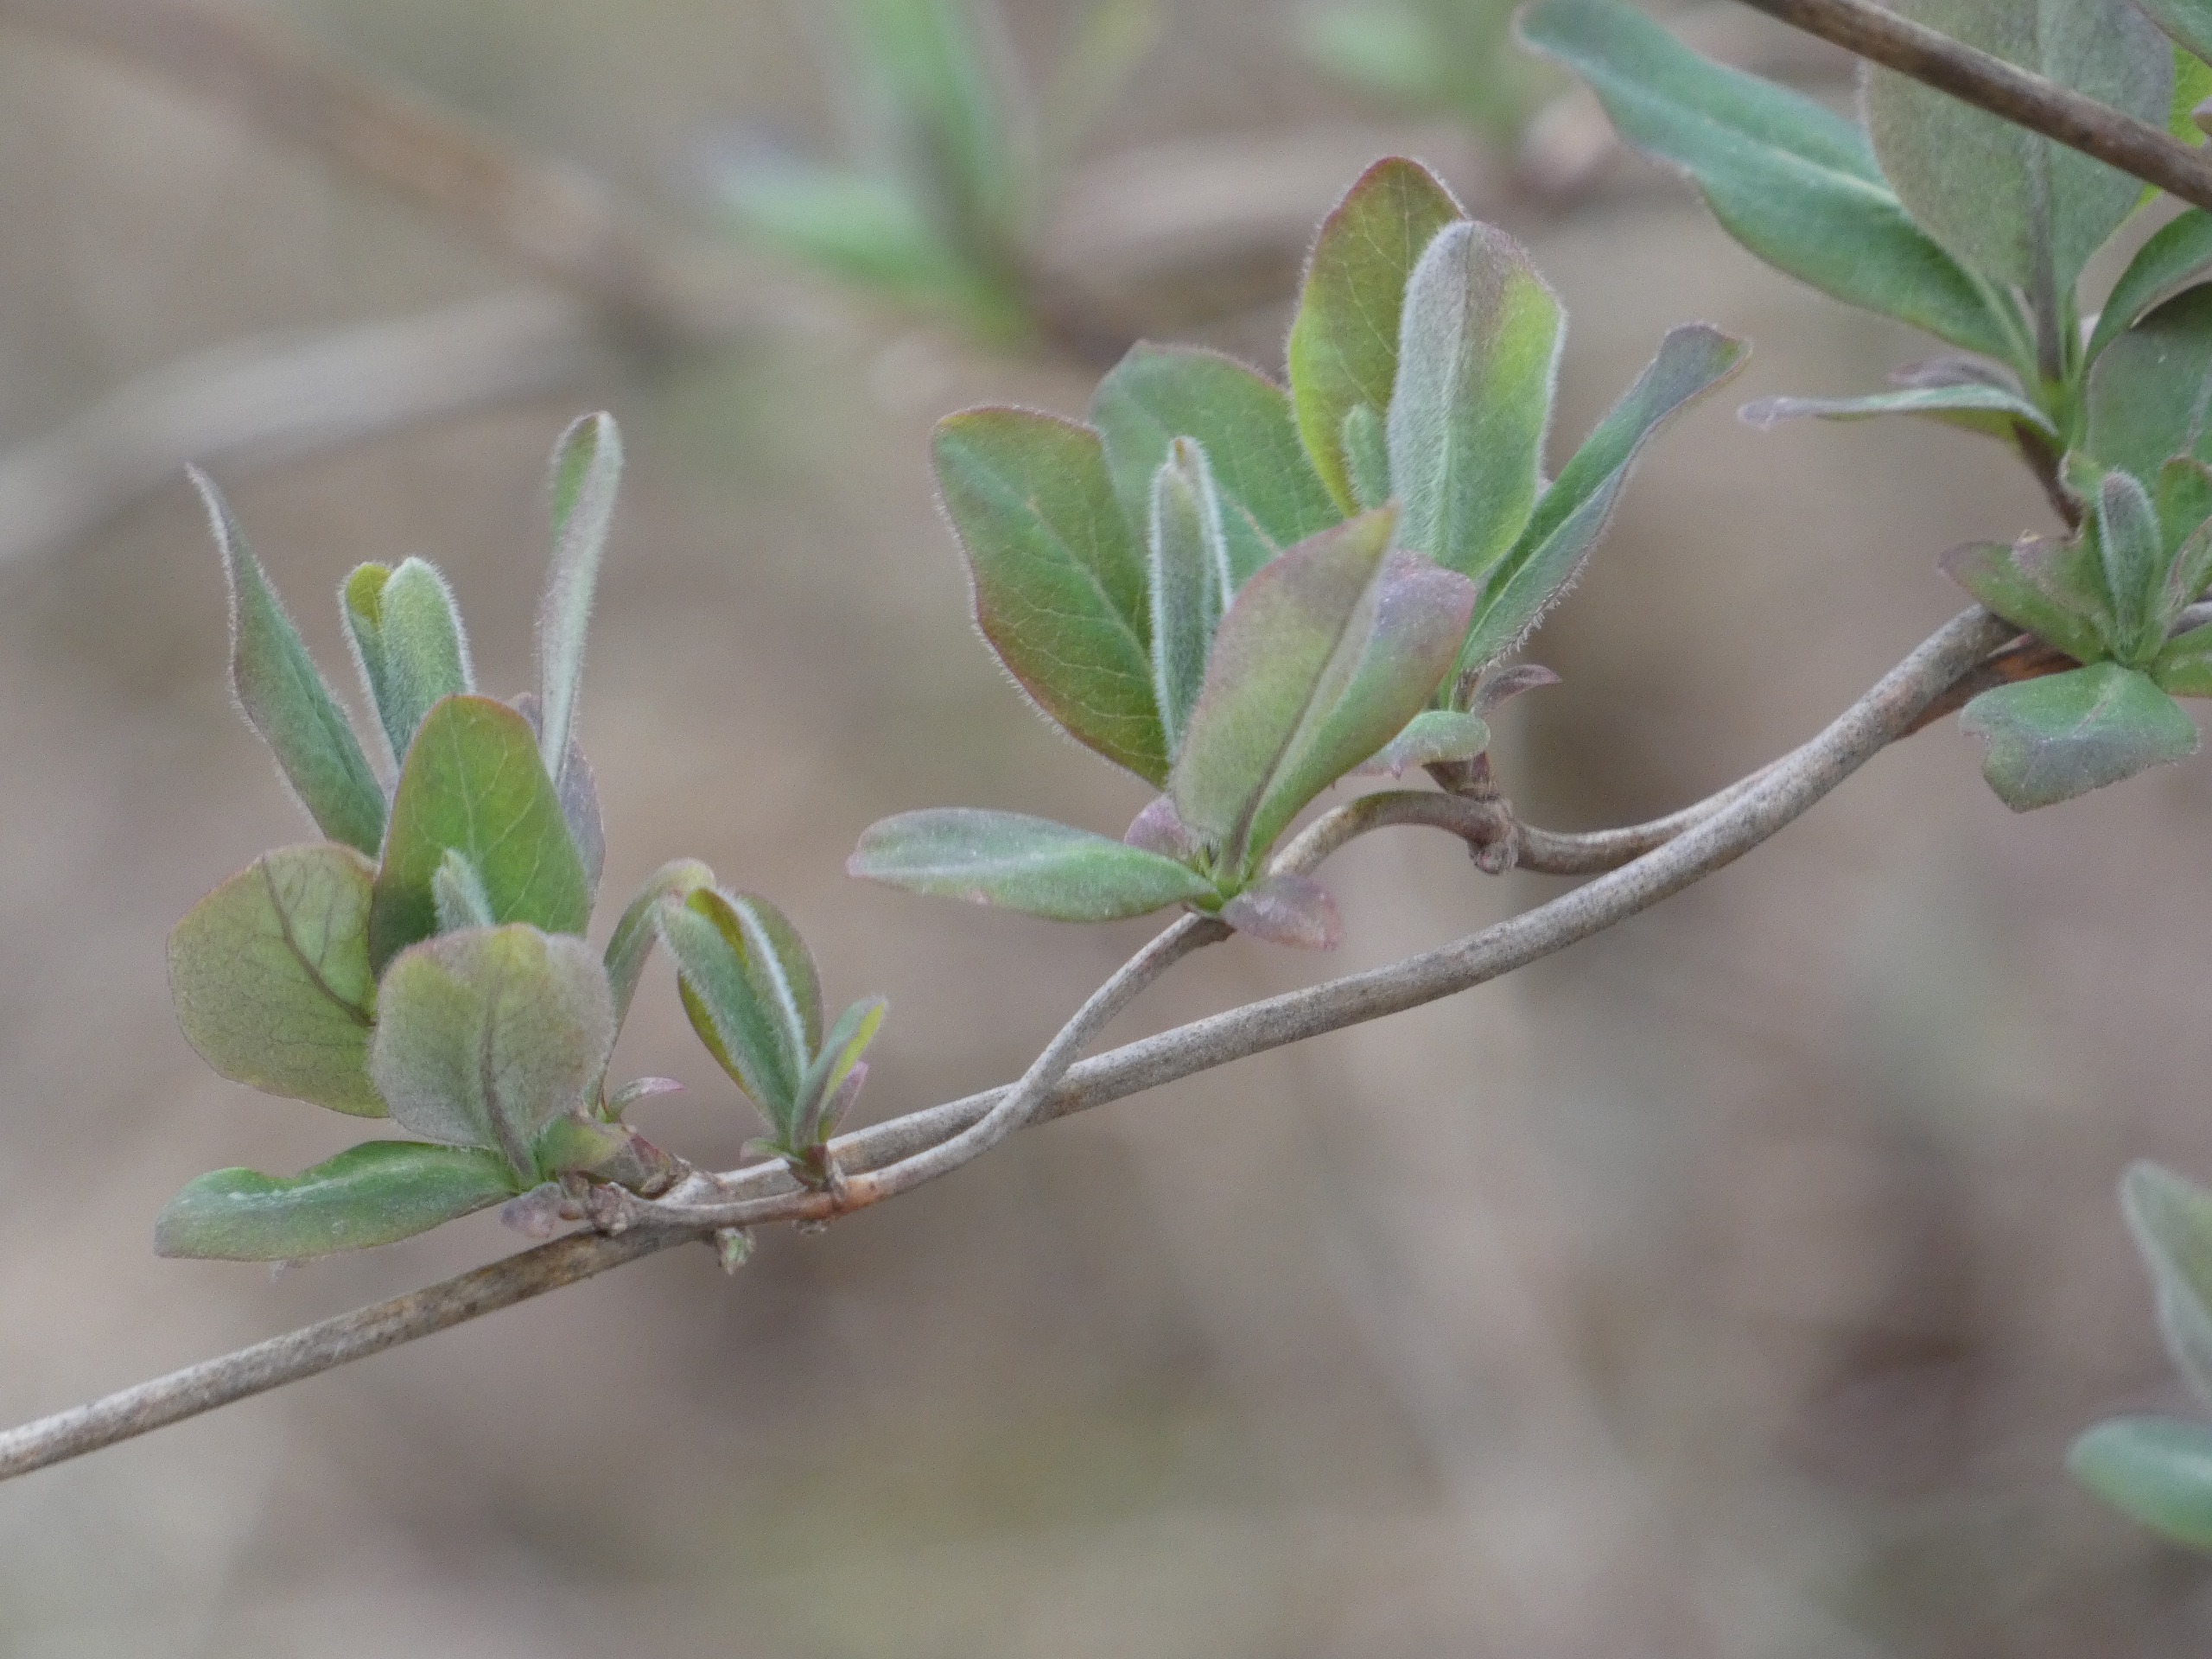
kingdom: Plantae
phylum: Tracheophyta
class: Magnoliopsida
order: Dipsacales
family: Caprifoliaceae
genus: Lonicera
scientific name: Lonicera periclymenum
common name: Almindelig gedeblad
